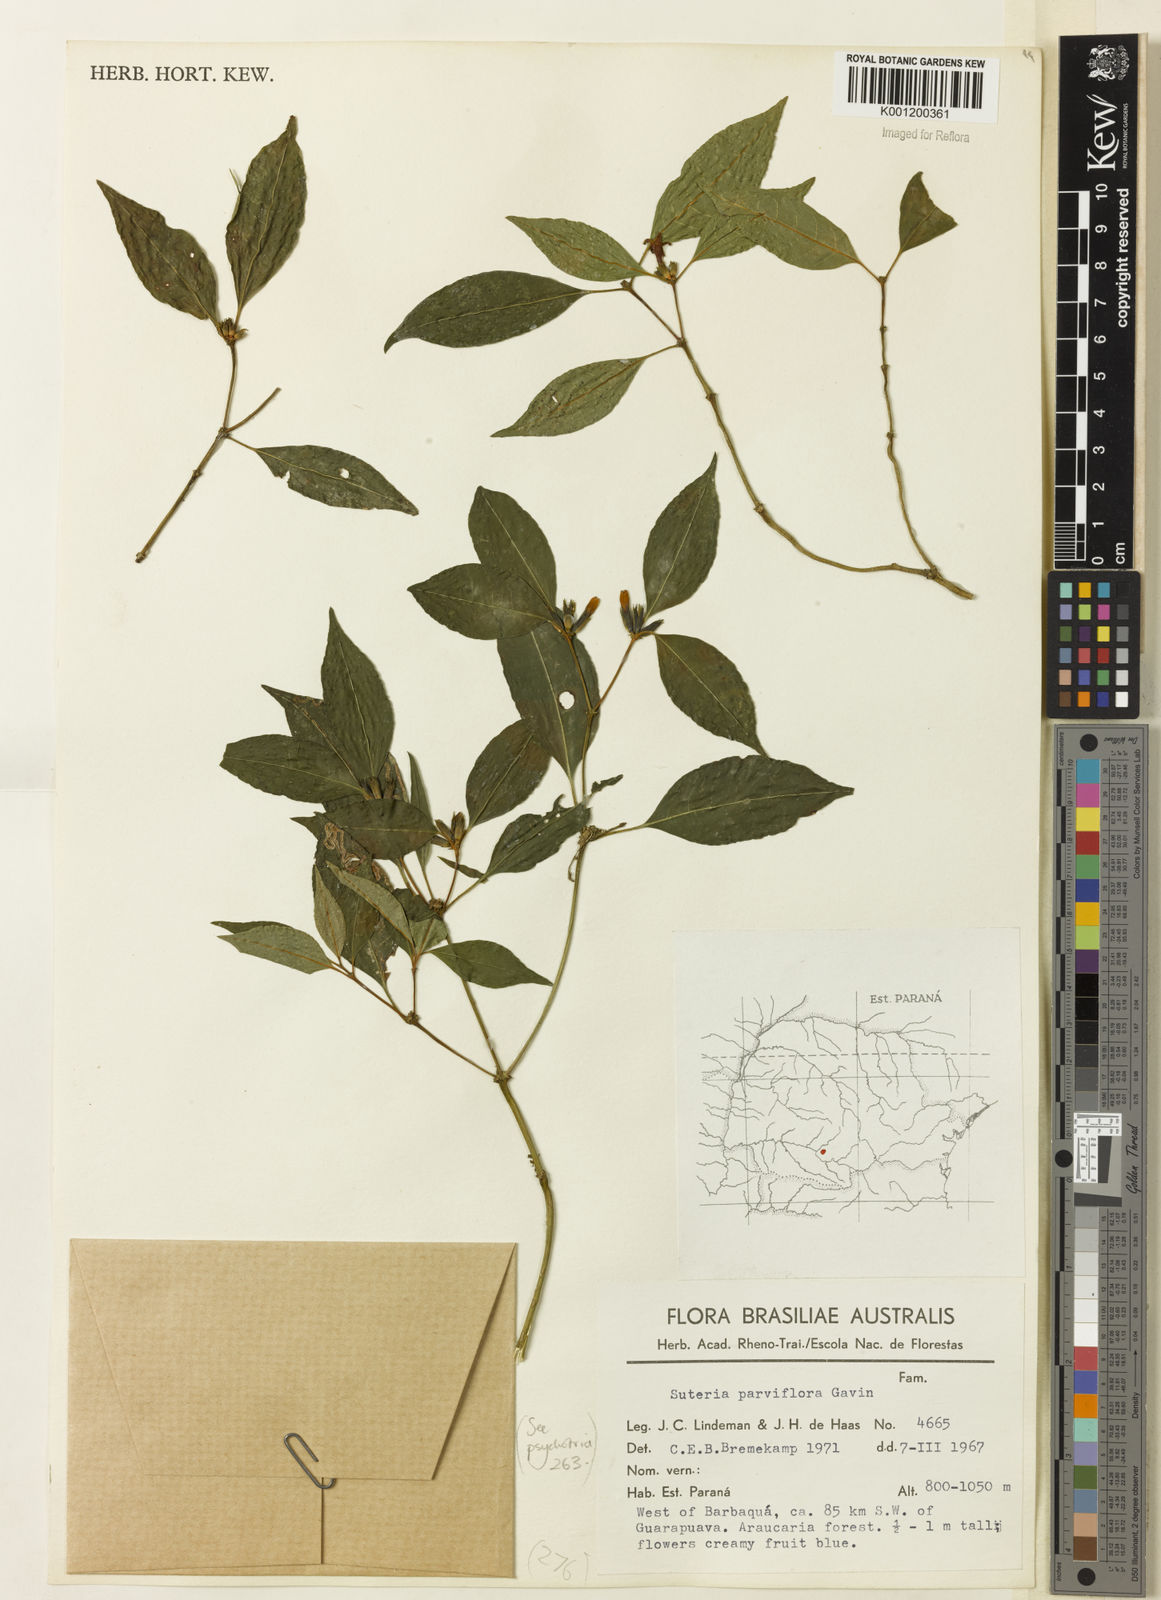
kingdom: Plantae
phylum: Tracheophyta
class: Magnoliopsida
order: Gentianales
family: Rubiaceae
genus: Psychotria
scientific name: Psychotria
